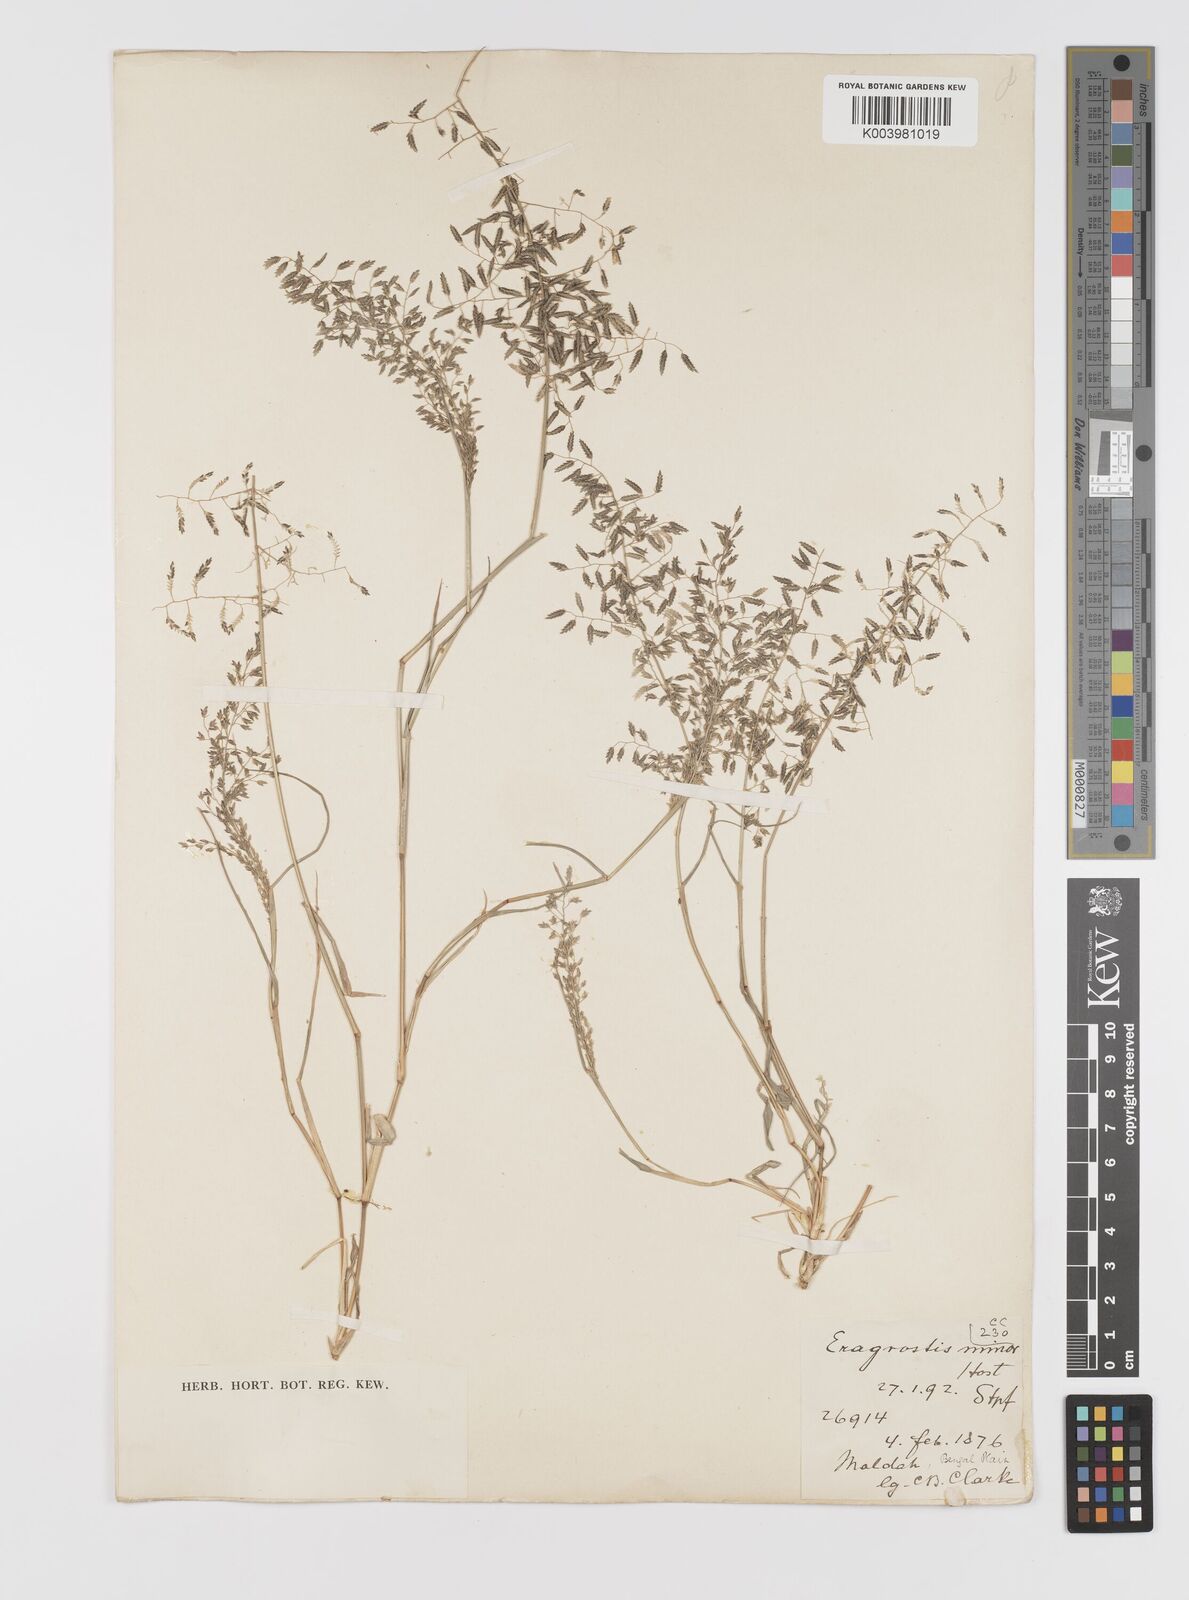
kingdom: Plantae
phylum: Tracheophyta
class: Liliopsida
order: Poales
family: Poaceae
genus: Eragrostis
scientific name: Eragrostis minor
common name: Small love-grass
